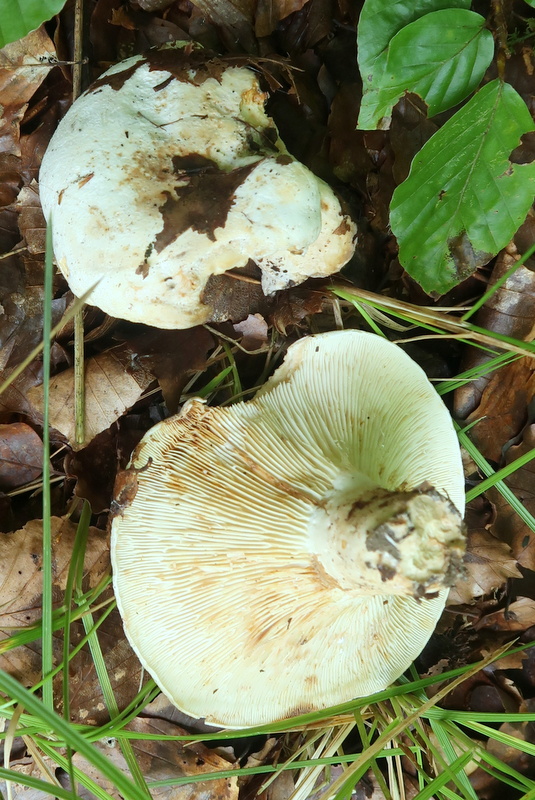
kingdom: Fungi
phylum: Basidiomycota
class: Agaricomycetes
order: Russulales
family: Russulaceae
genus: Lactifluus
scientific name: Lactifluus bertillonii
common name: blødfiltet mælkehat
